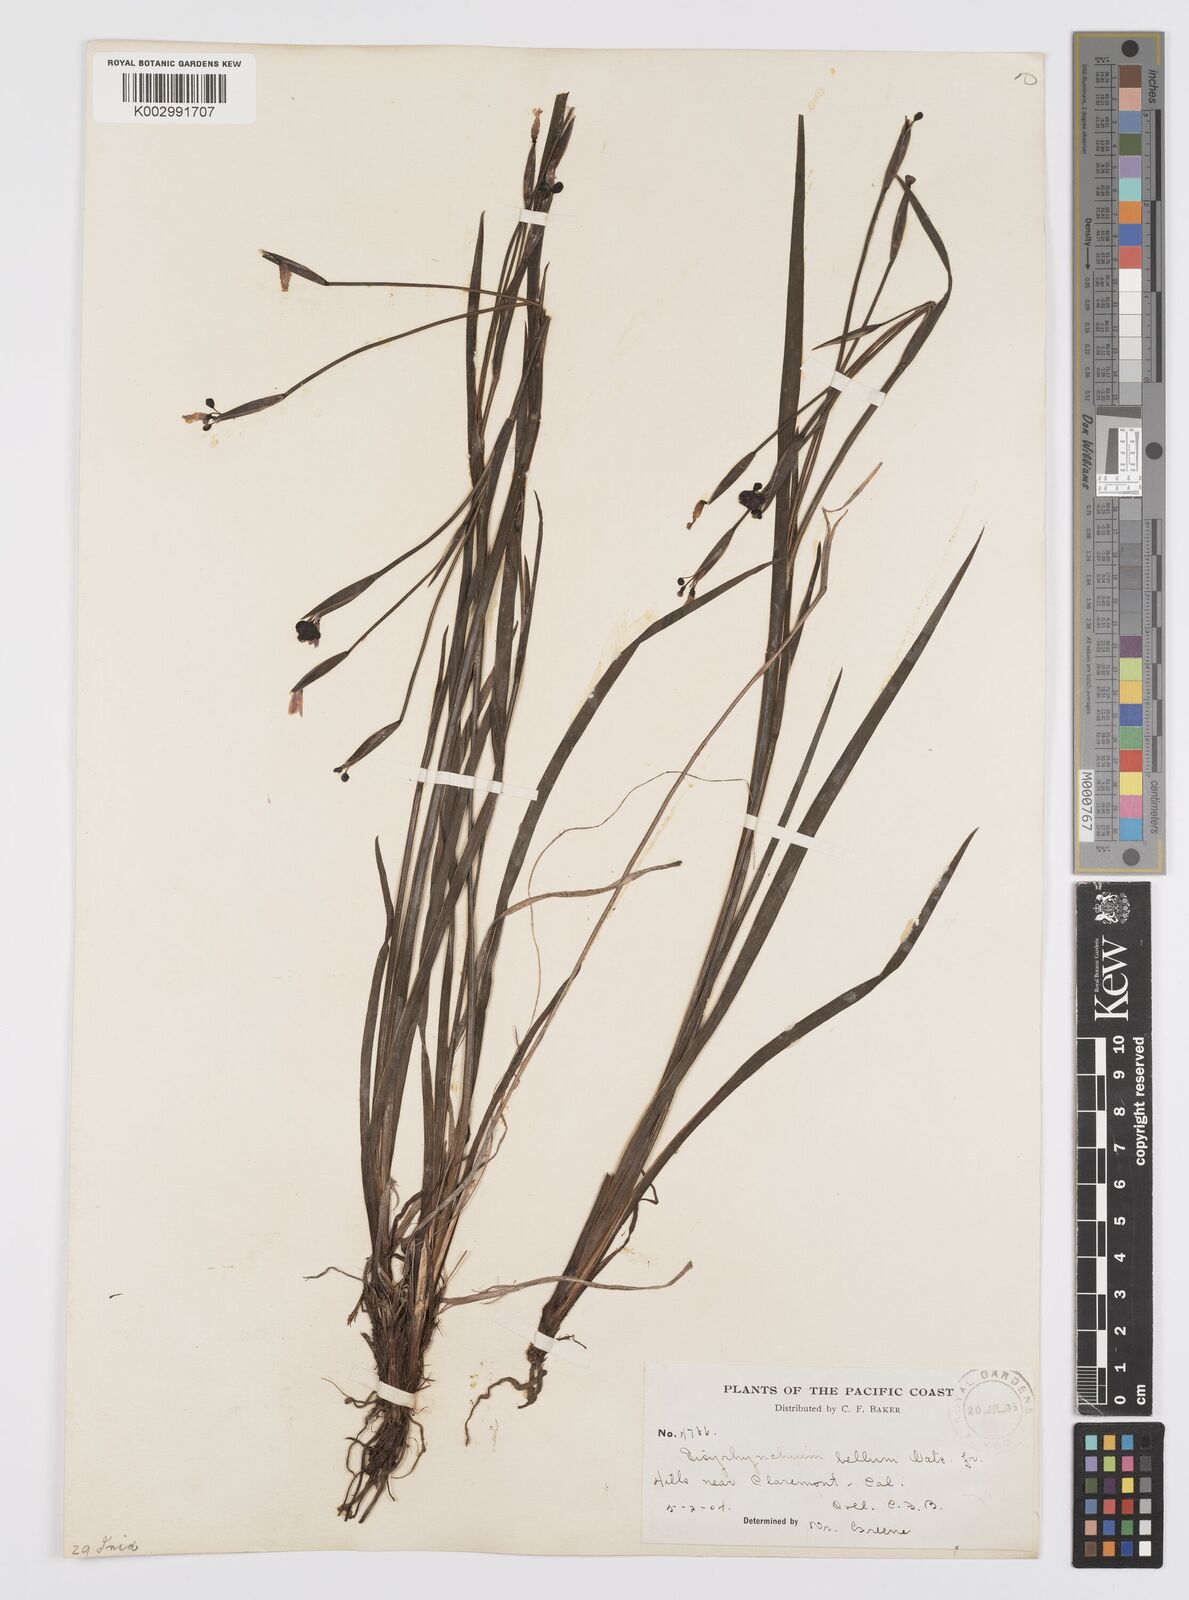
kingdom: Plantae
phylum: Tracheophyta
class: Liliopsida
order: Asparagales
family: Iridaceae
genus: Sisyrinchium
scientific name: Sisyrinchium bellum
